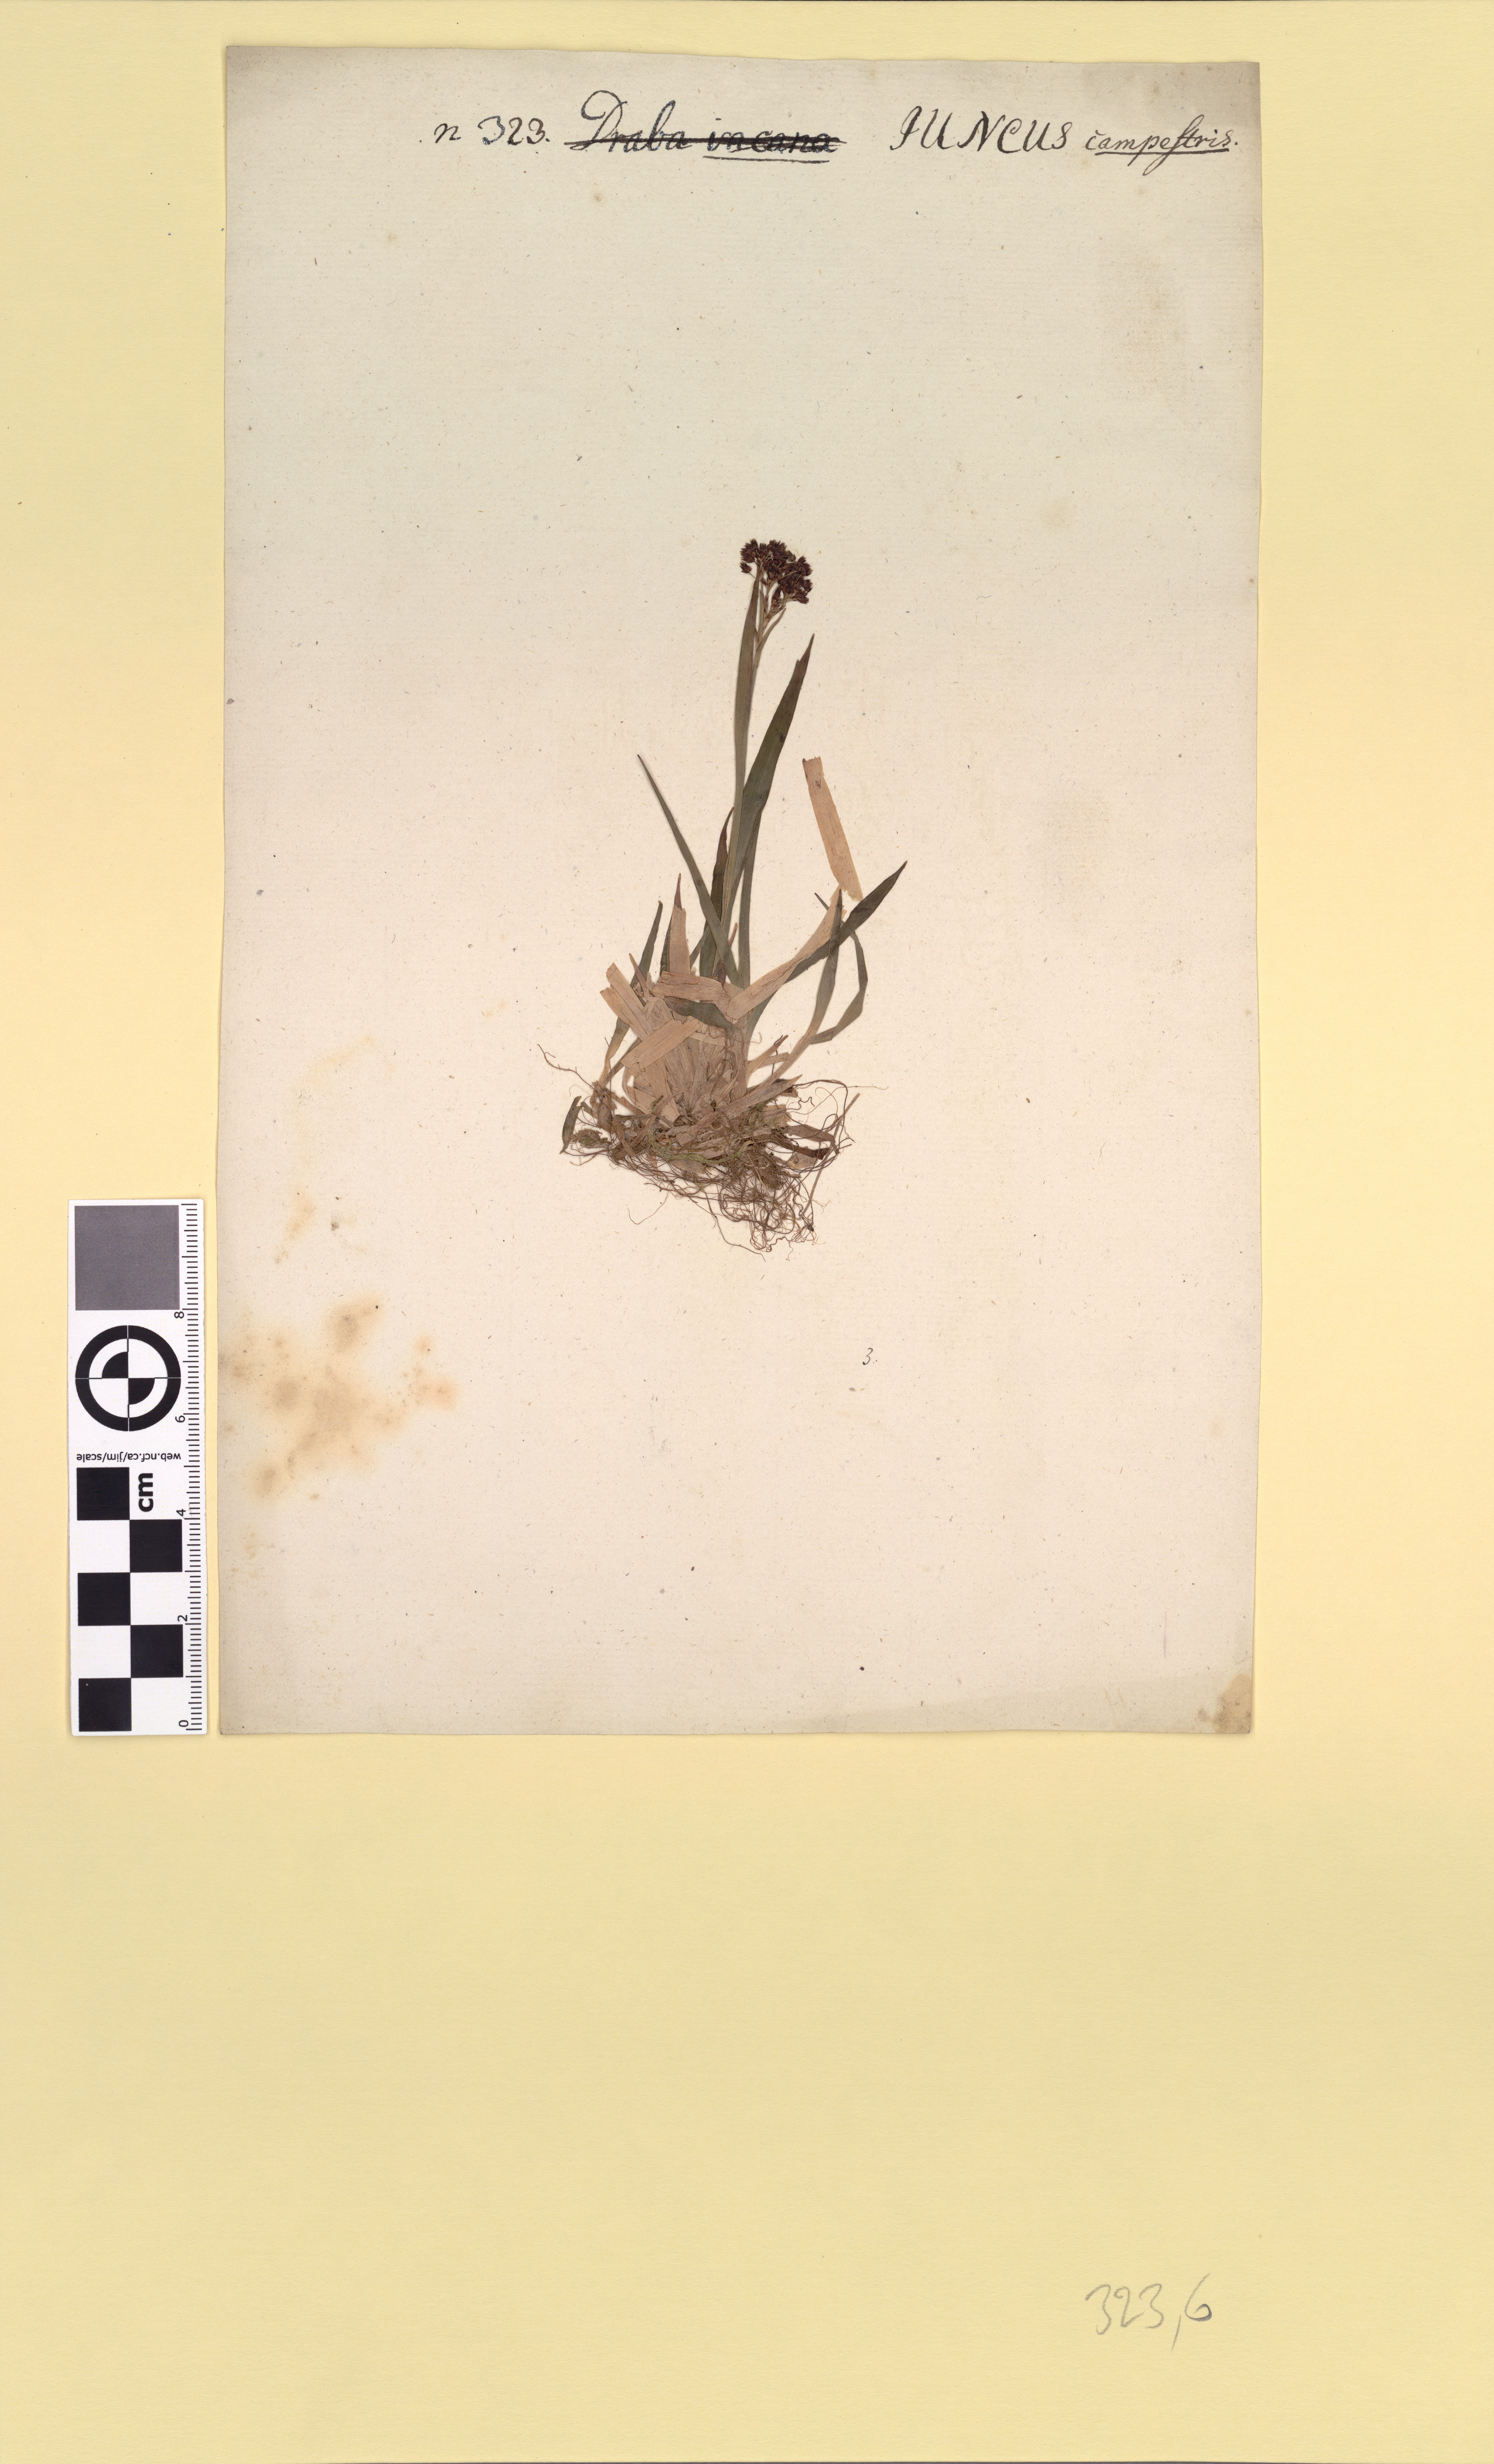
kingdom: Plantae
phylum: Tracheophyta
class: Liliopsida
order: Poales
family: Juncaceae
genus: Luzula
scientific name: Luzula multiflora
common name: Heath wood-rush
